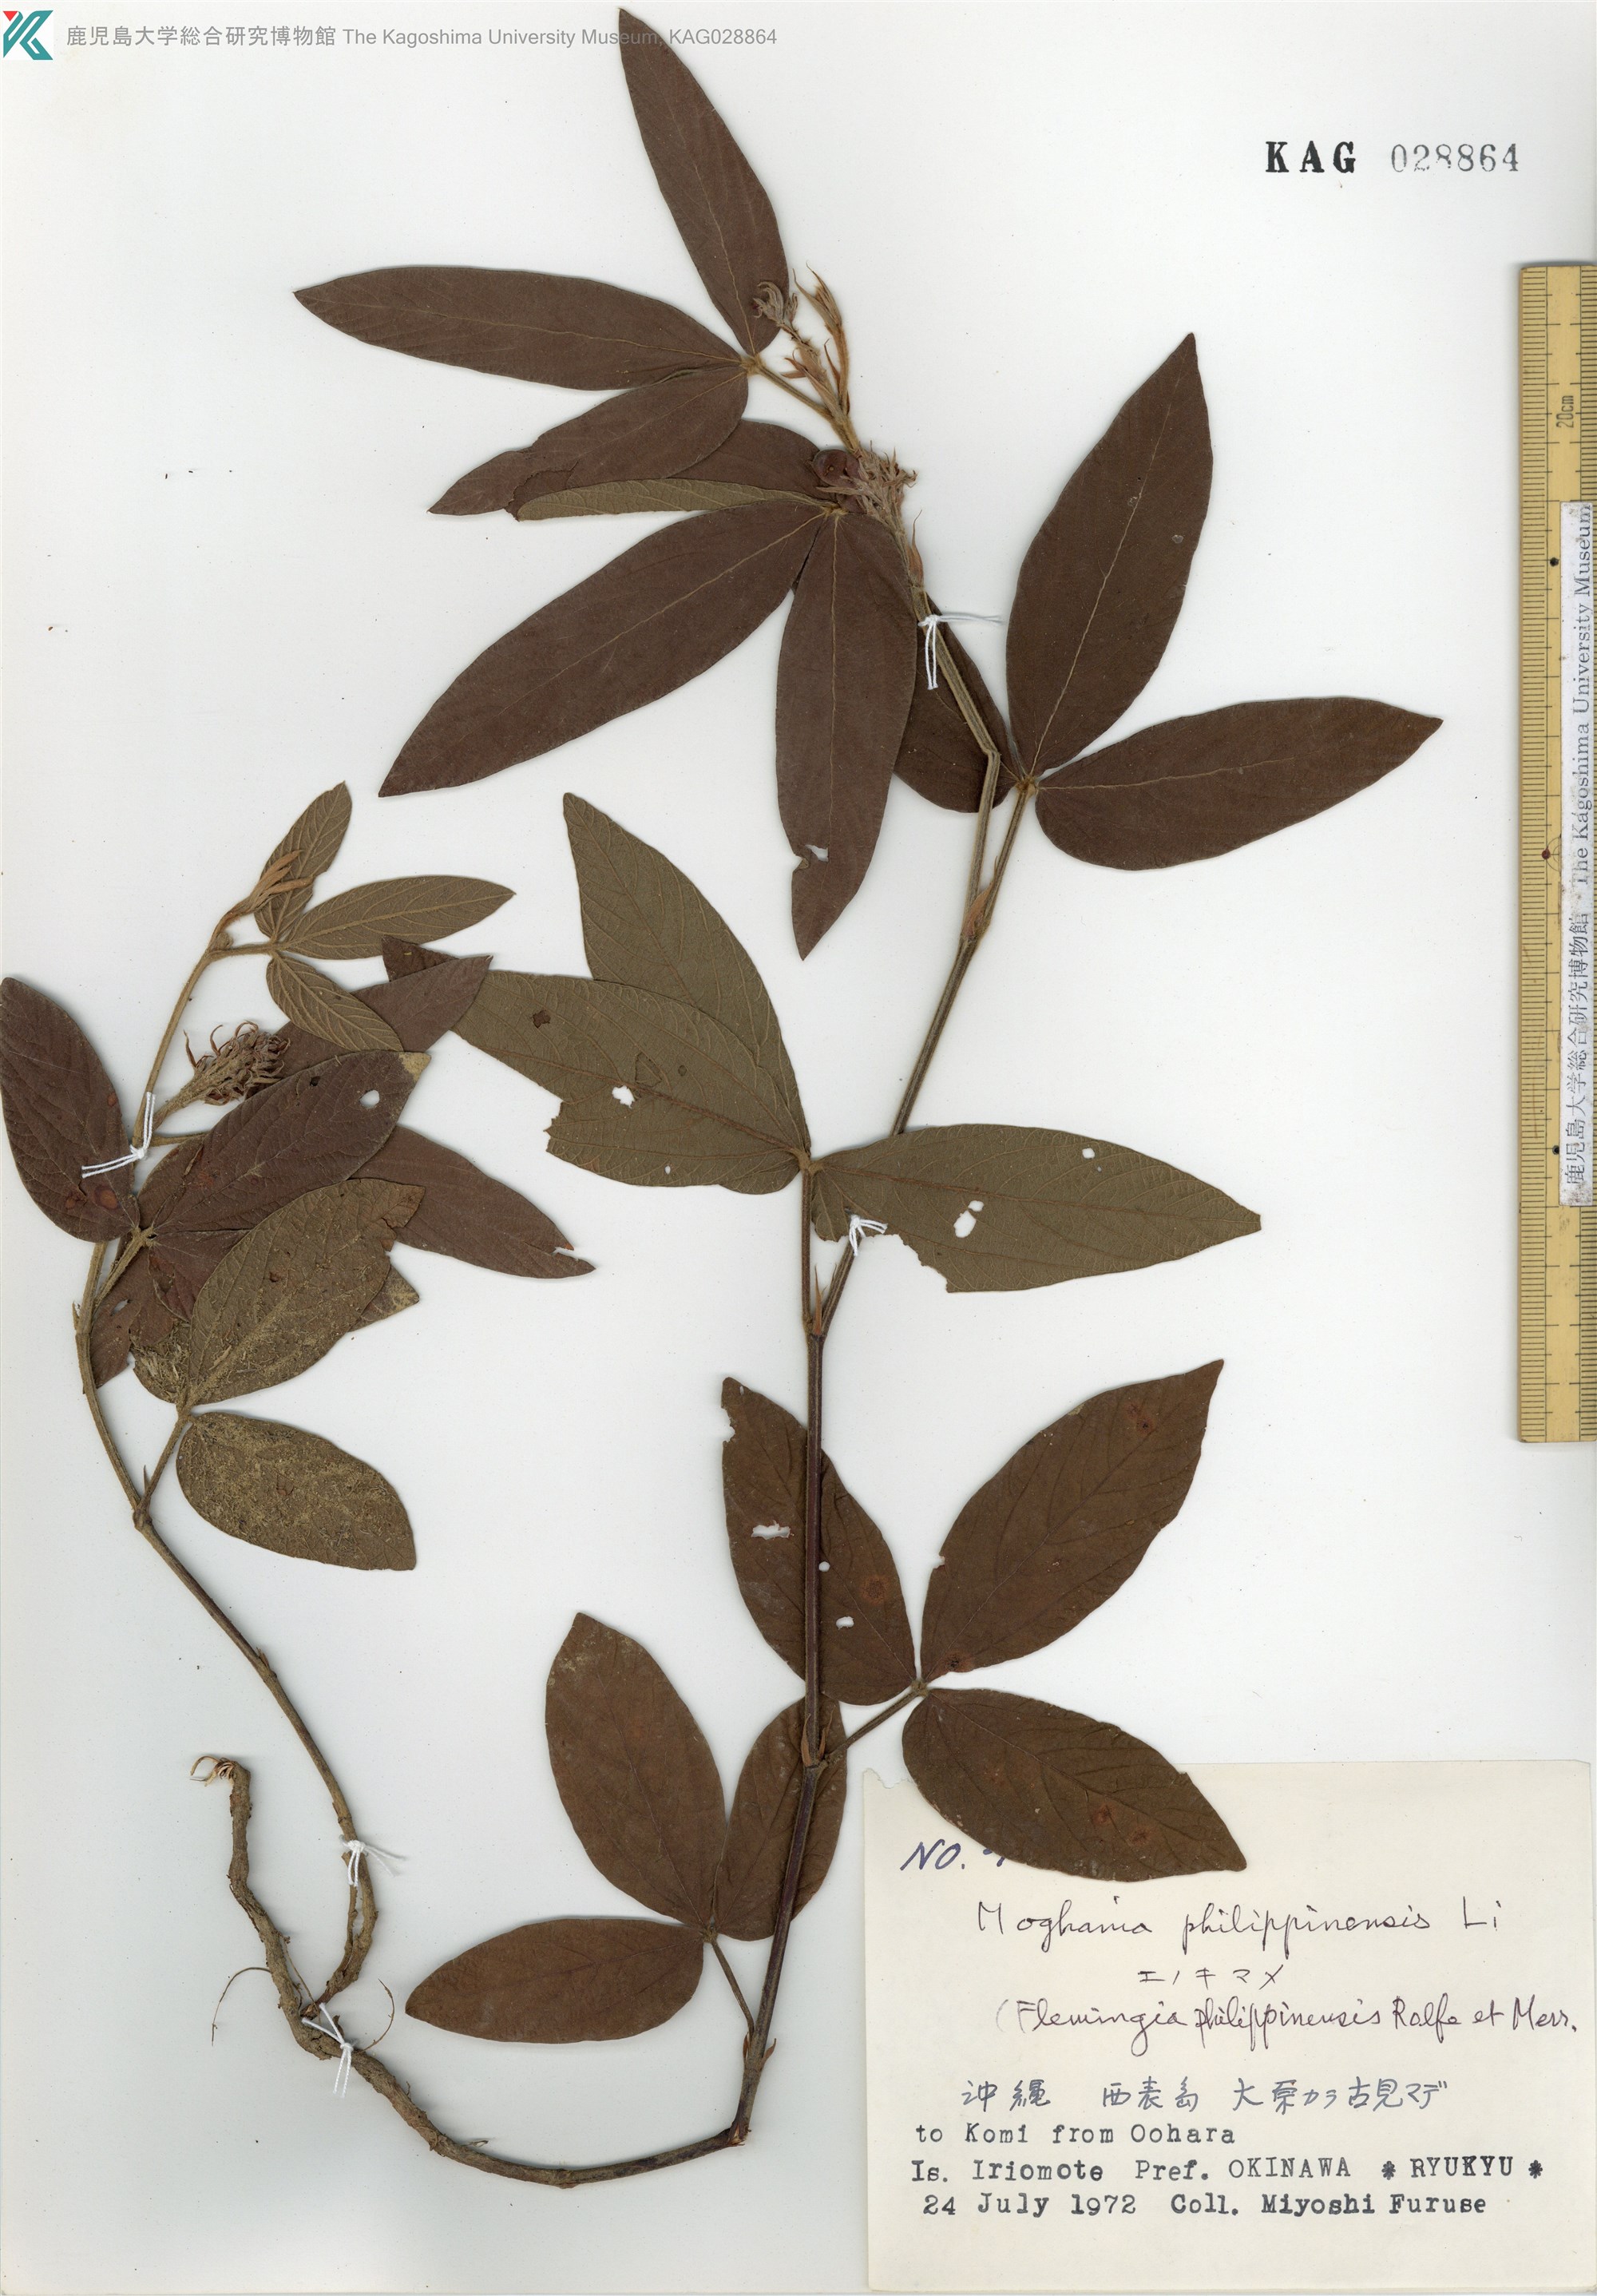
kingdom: Plantae
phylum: Tracheophyta
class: Magnoliopsida
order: Fabales
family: Fabaceae
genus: Flemingia
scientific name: Flemingia prostrata
